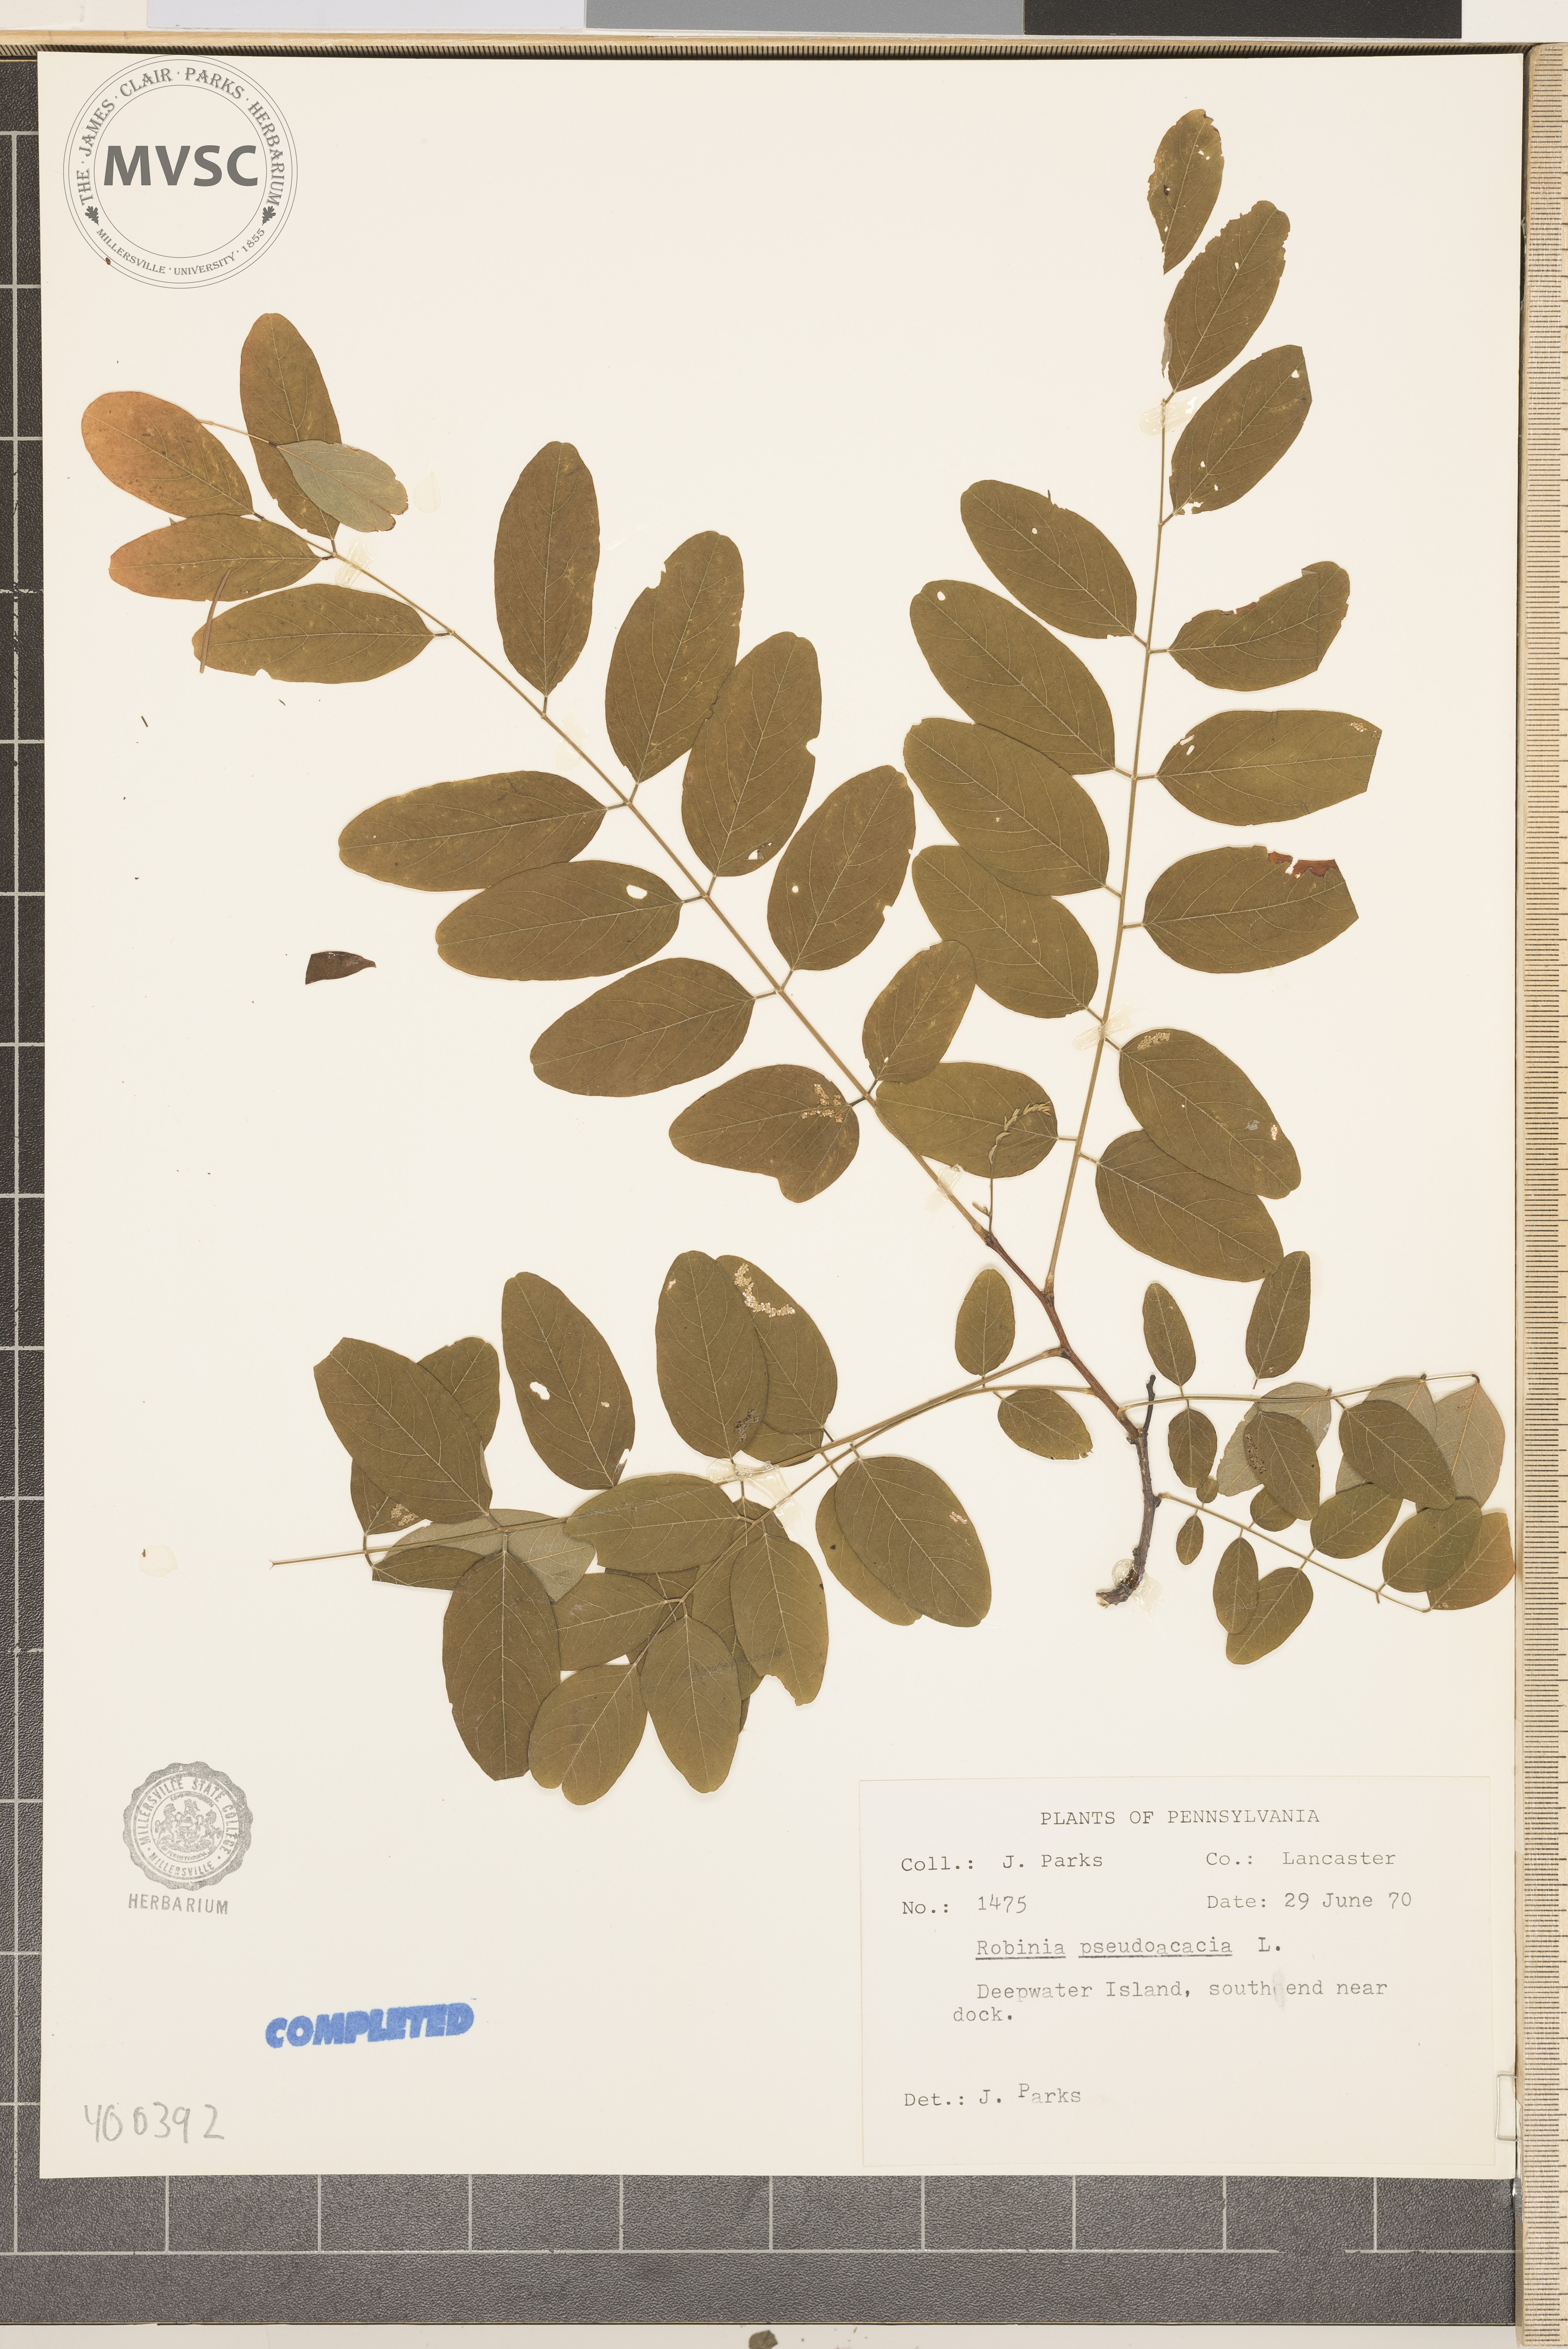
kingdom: Plantae
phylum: Tracheophyta
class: Magnoliopsida
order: Fabales
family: Fabaceae
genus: Robinia
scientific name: Robinia pseudoacacia
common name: black locust
